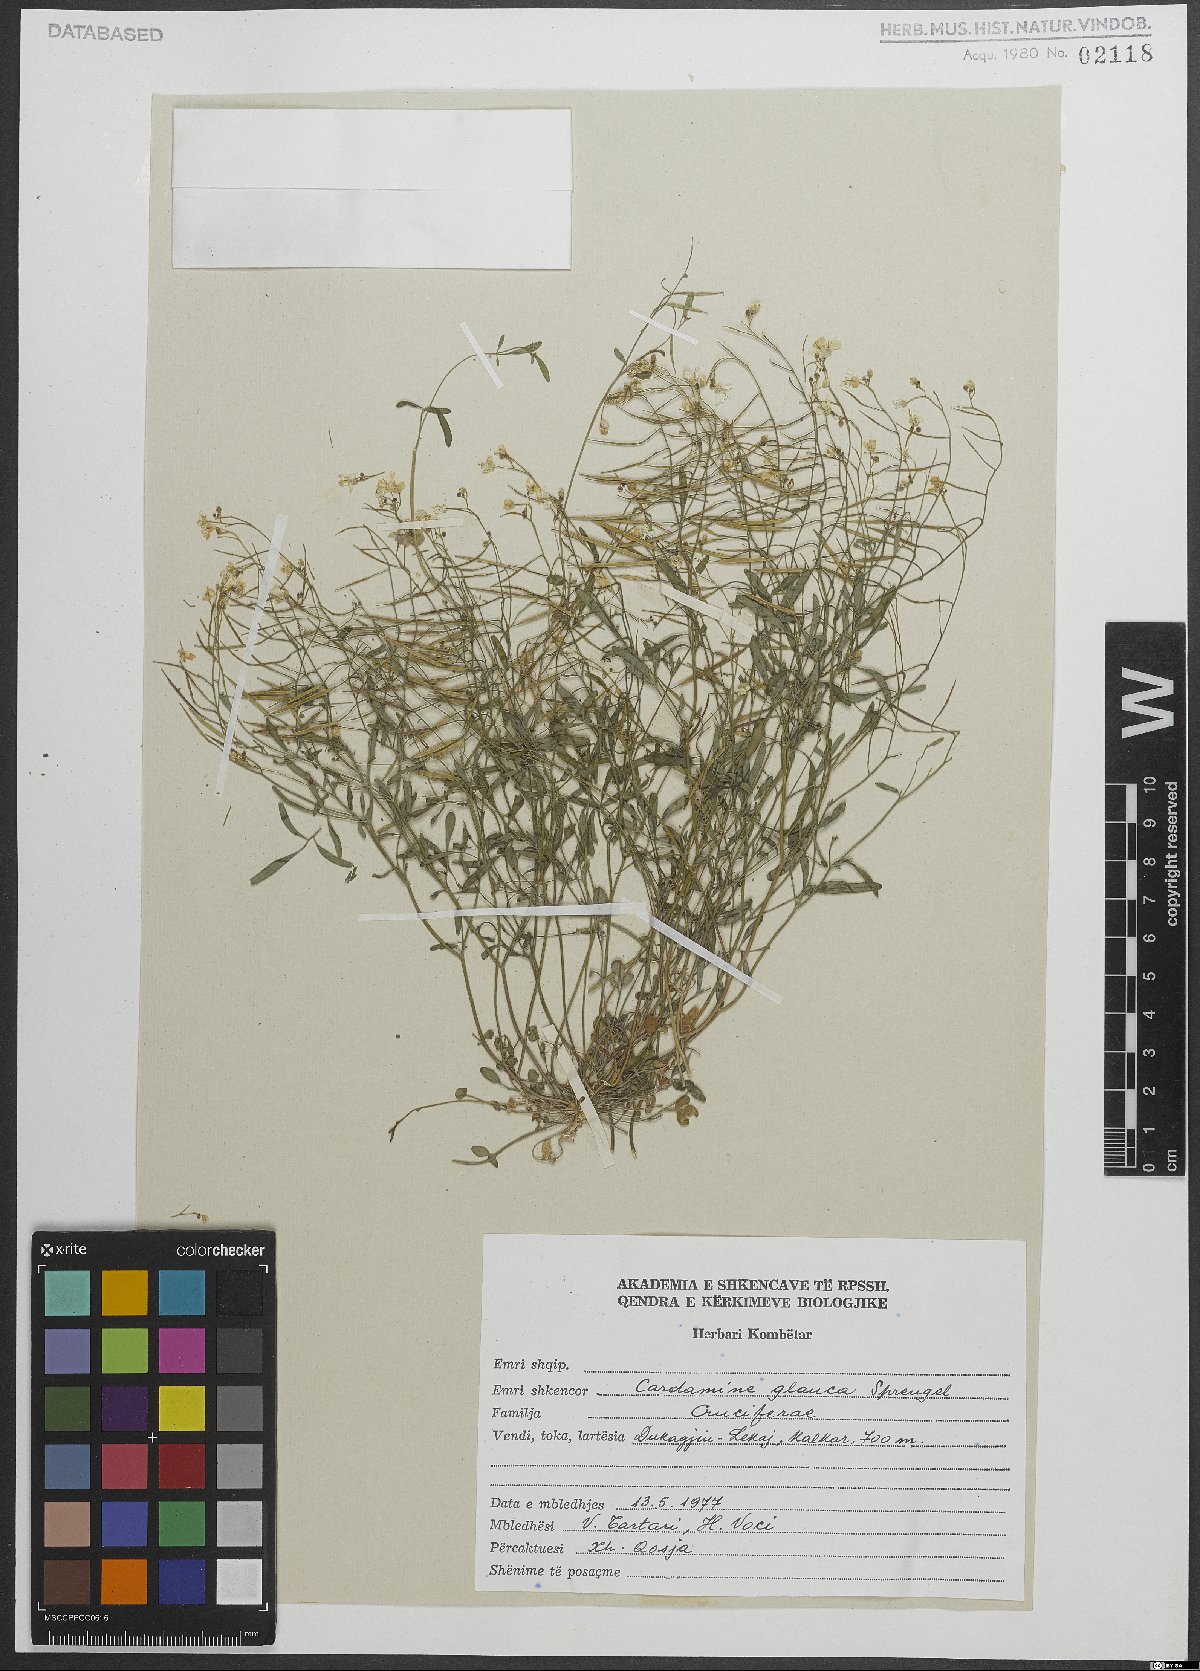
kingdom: Plantae
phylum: Tracheophyta
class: Magnoliopsida
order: Brassicales
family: Brassicaceae
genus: Cardamine
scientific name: Cardamine glauca
